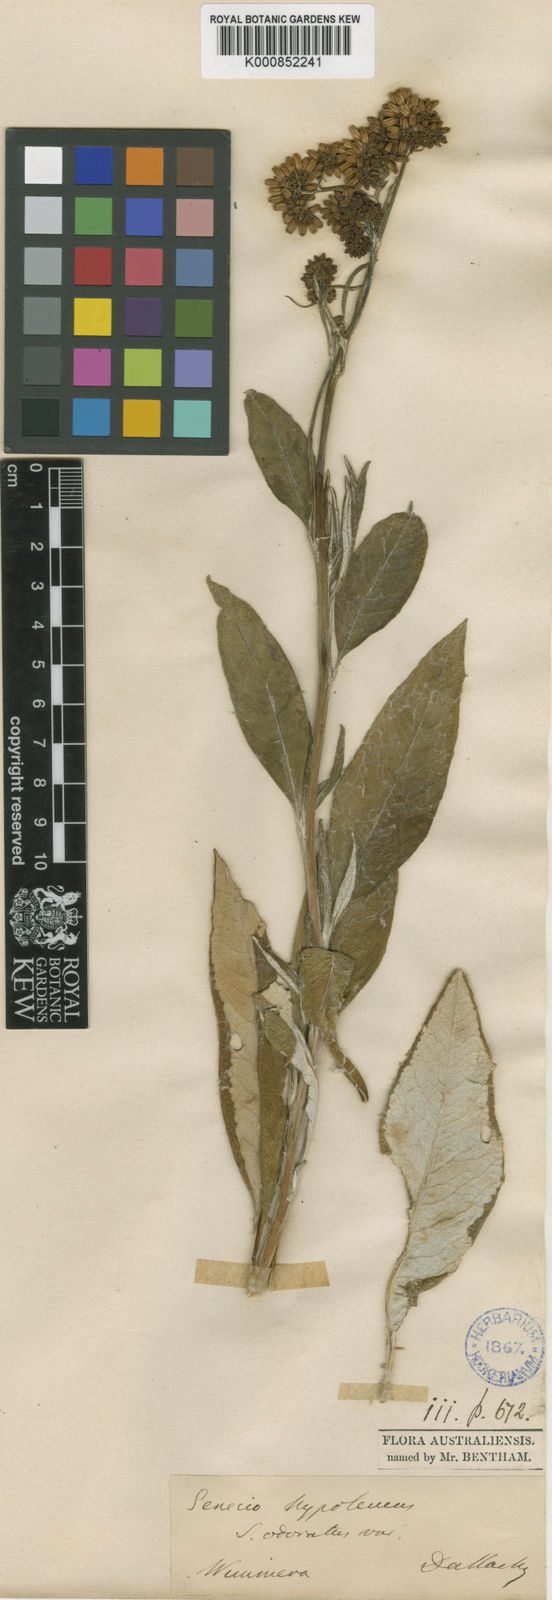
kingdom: Plantae
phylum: Tracheophyta
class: Magnoliopsida
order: Asterales
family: Asteraceae
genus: Senecio
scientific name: Senecio hypoleucus
